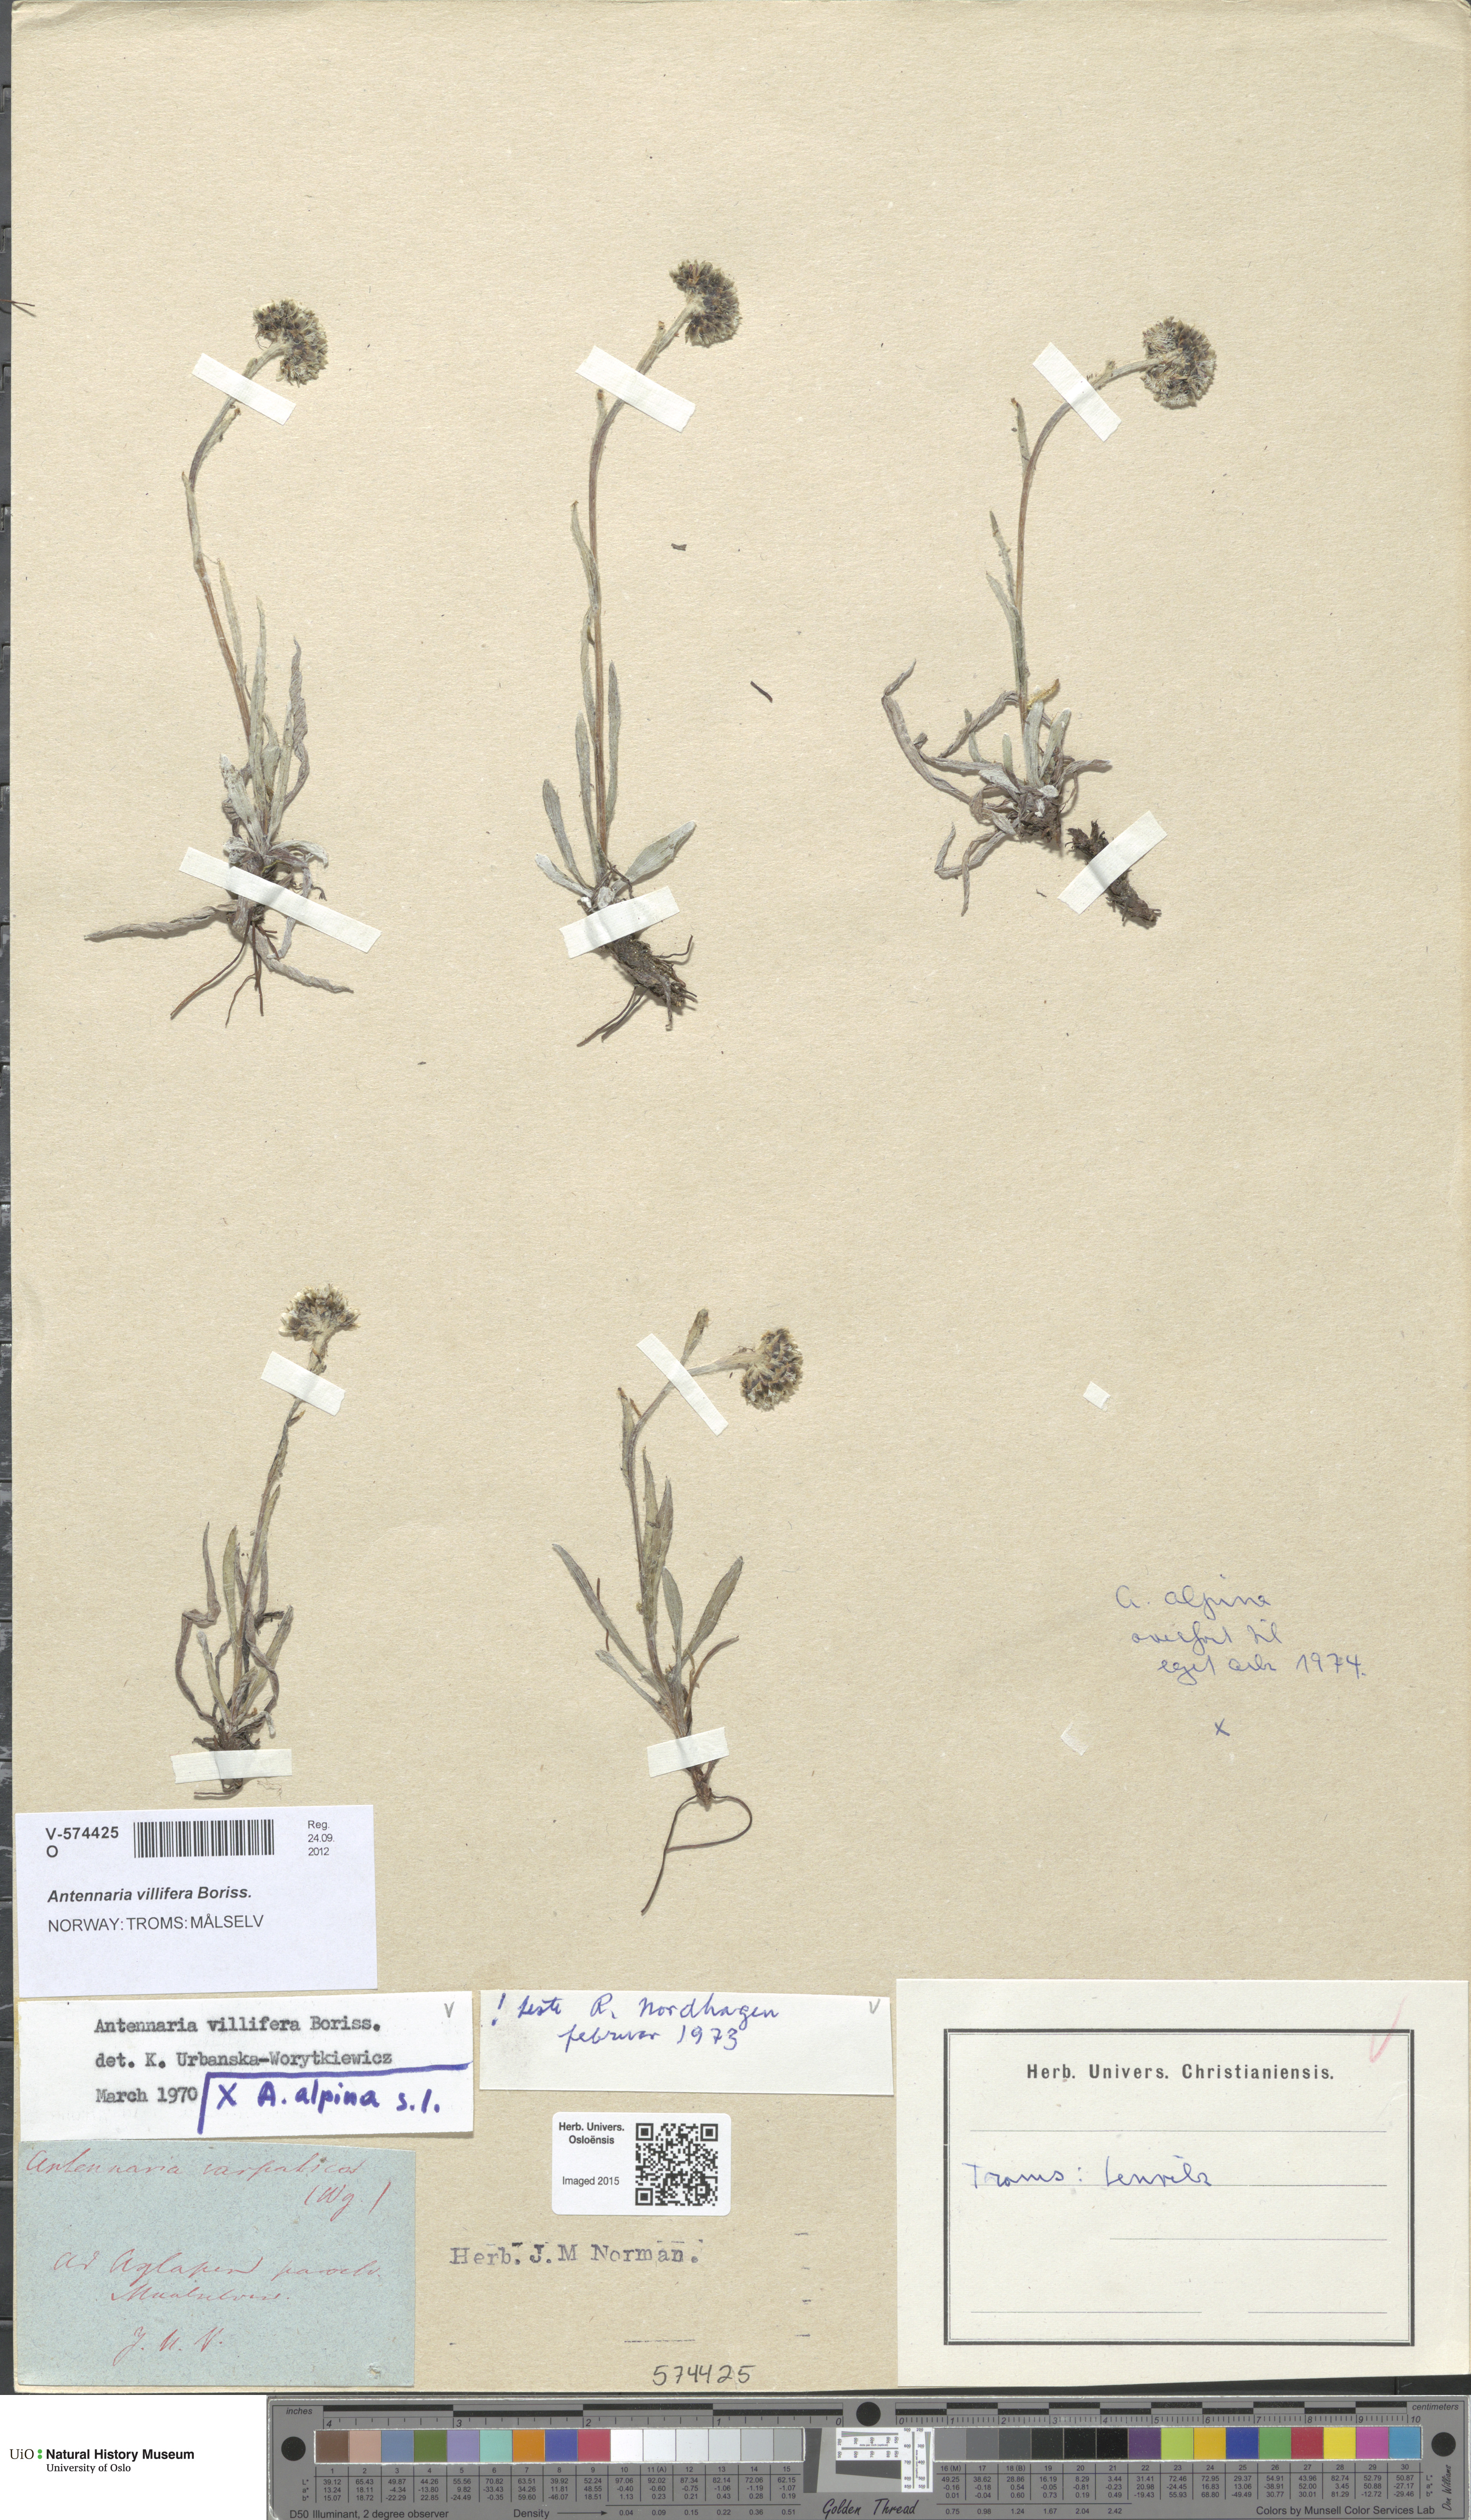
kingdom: Plantae
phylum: Tracheophyta
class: Magnoliopsida
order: Asterales
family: Asteraceae
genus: Antennaria
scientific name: Antennaria lanata
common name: Woolly pussytoes
